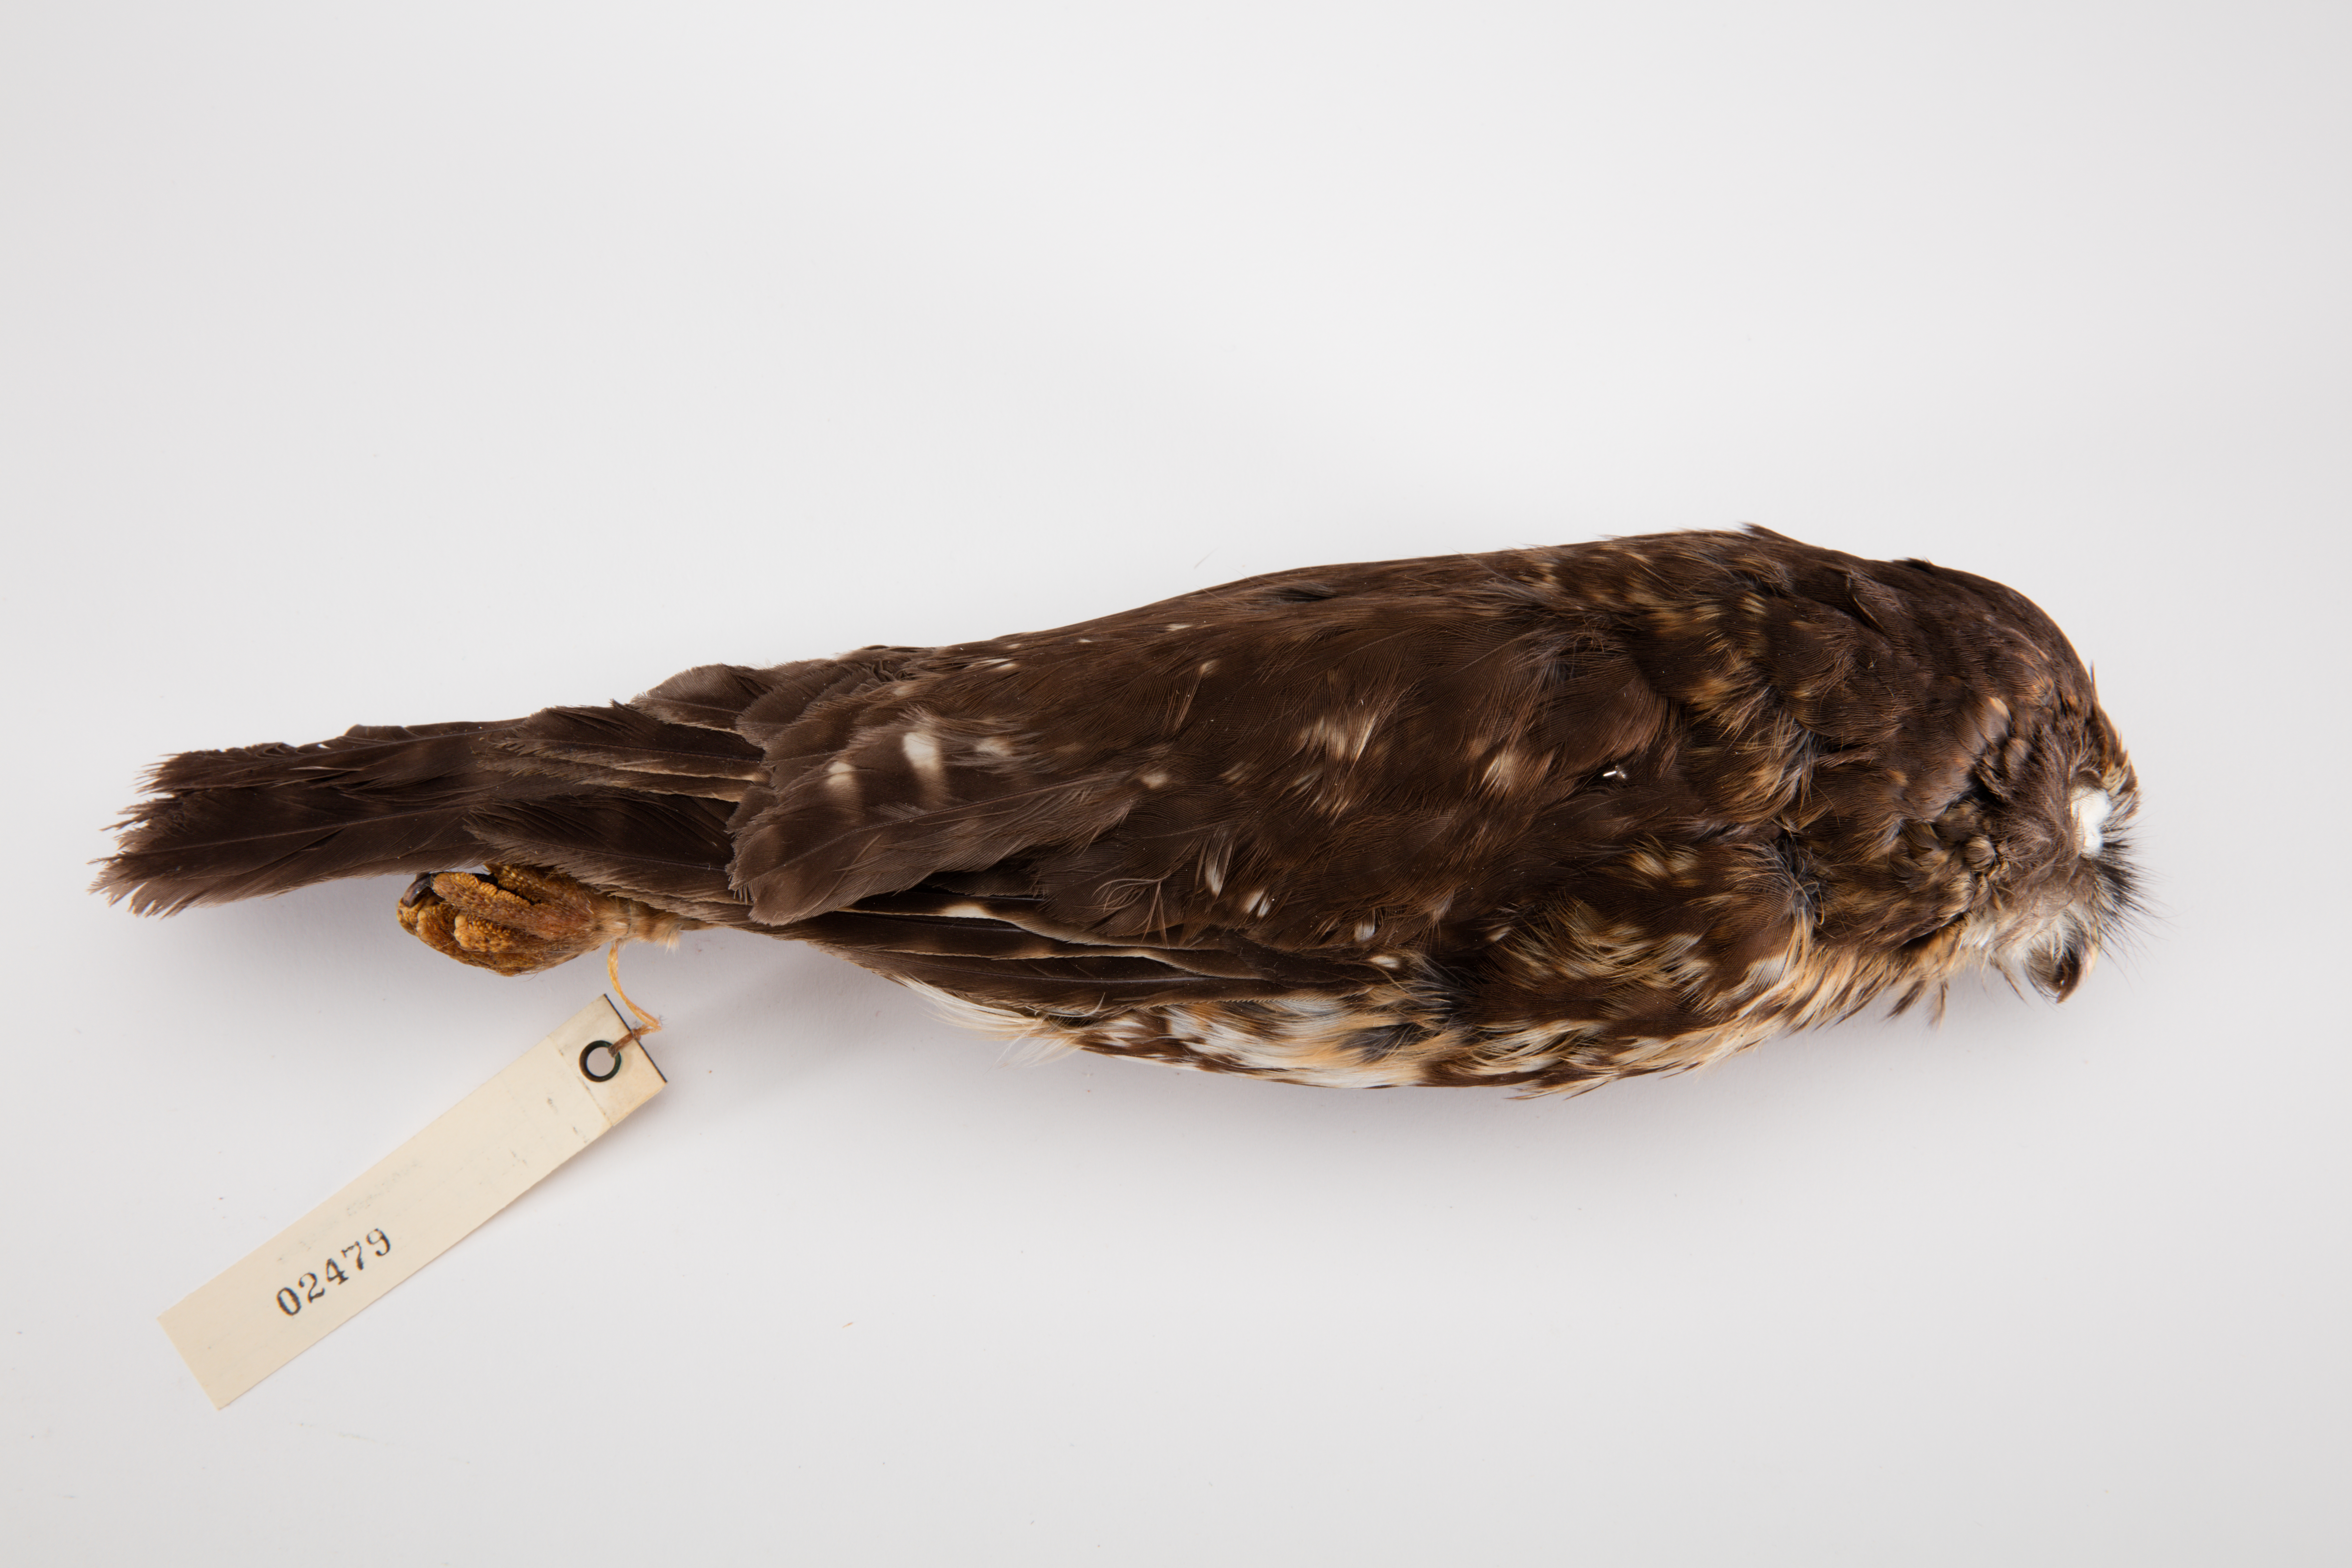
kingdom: Animalia
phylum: Chordata
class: Aves
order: Strigiformes
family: Strigidae
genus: Ninox
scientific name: Ninox novaeseelandiae
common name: Morepork
